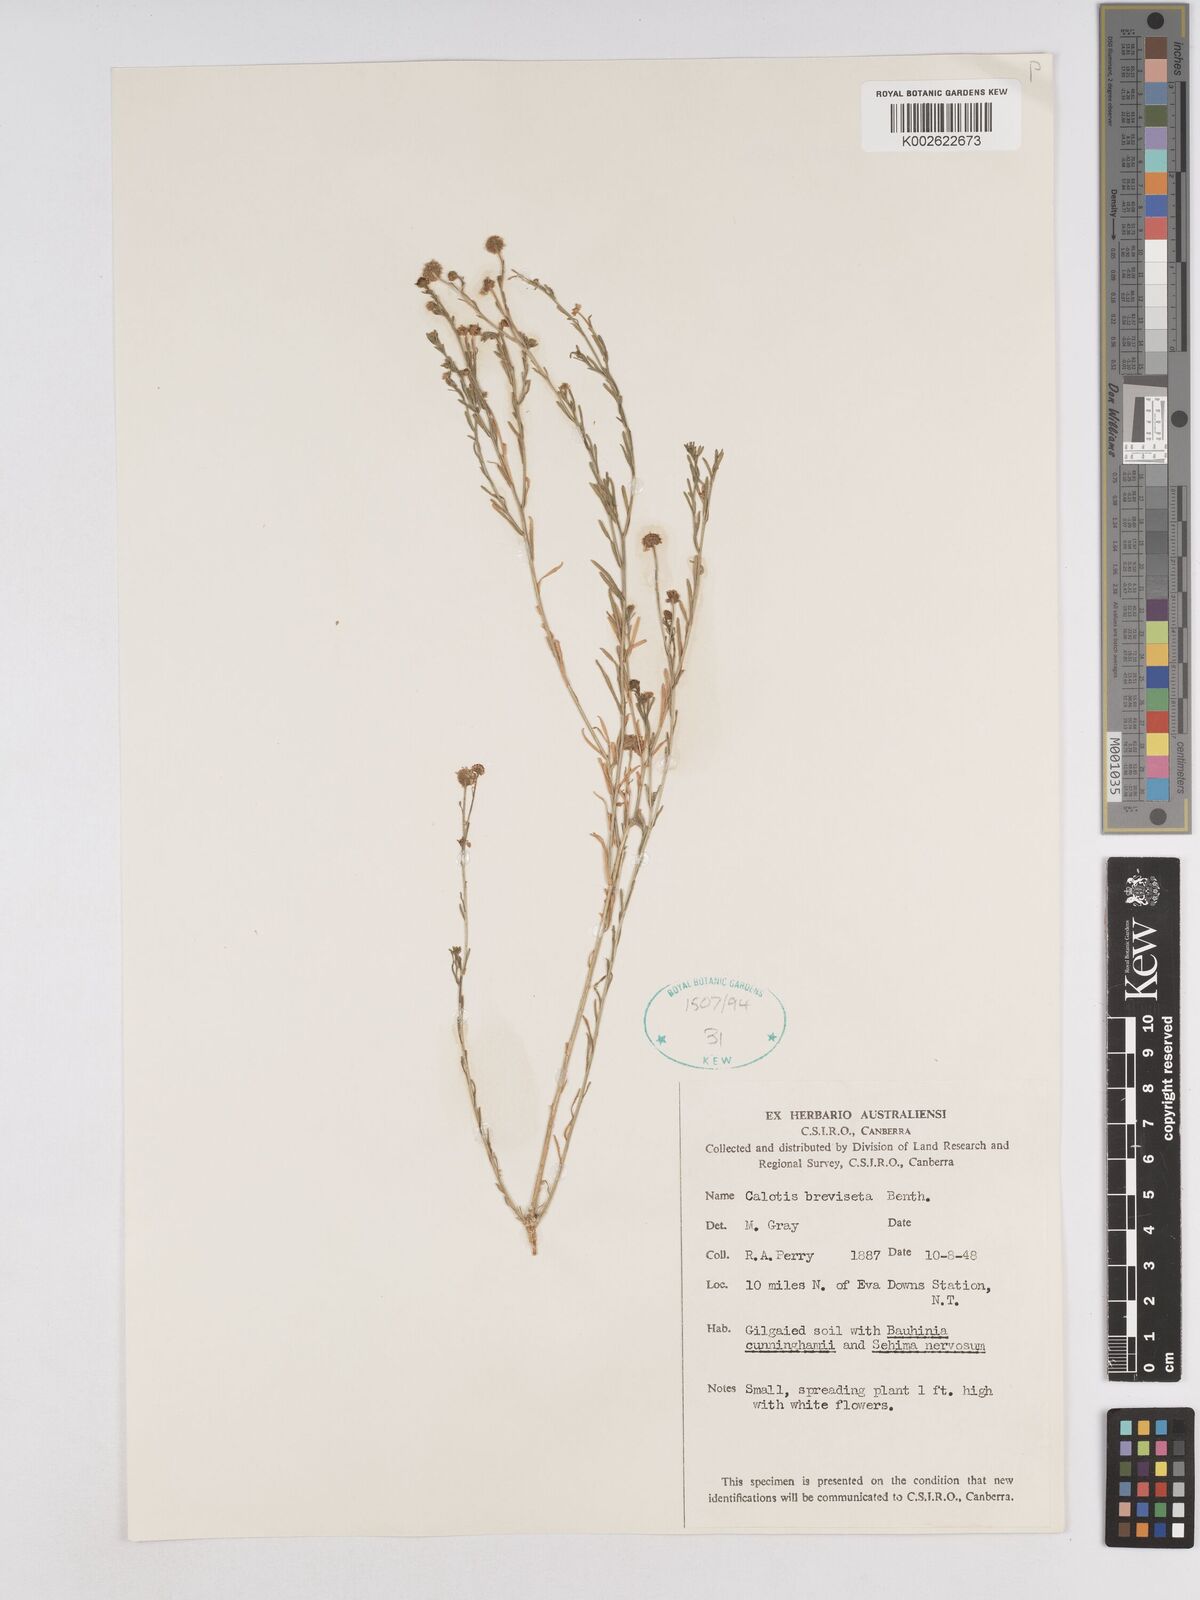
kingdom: Plantae
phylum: Tracheophyta
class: Magnoliopsida
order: Asterales
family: Asteraceae
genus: Calotis
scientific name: Calotis breviseta
